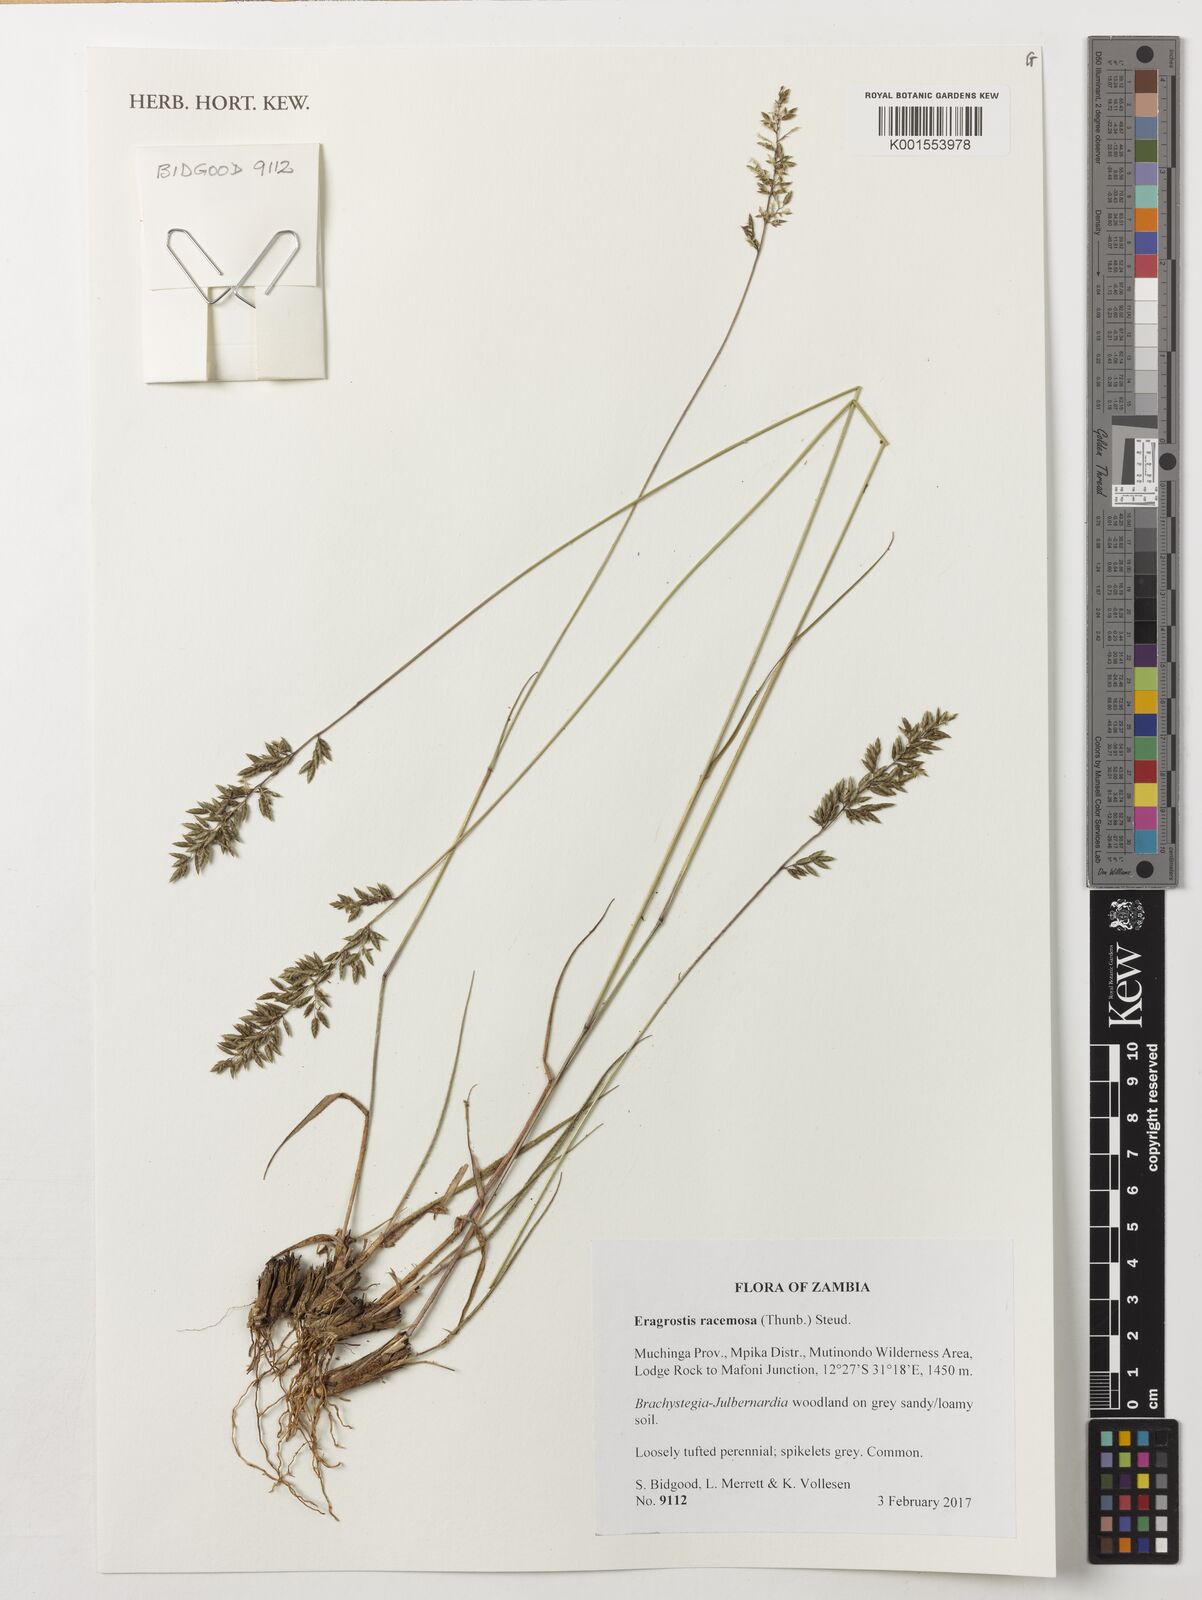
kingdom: Plantae
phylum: Tracheophyta
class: Liliopsida
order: Poales
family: Poaceae
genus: Eragrostis
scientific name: Eragrostis racemosa
